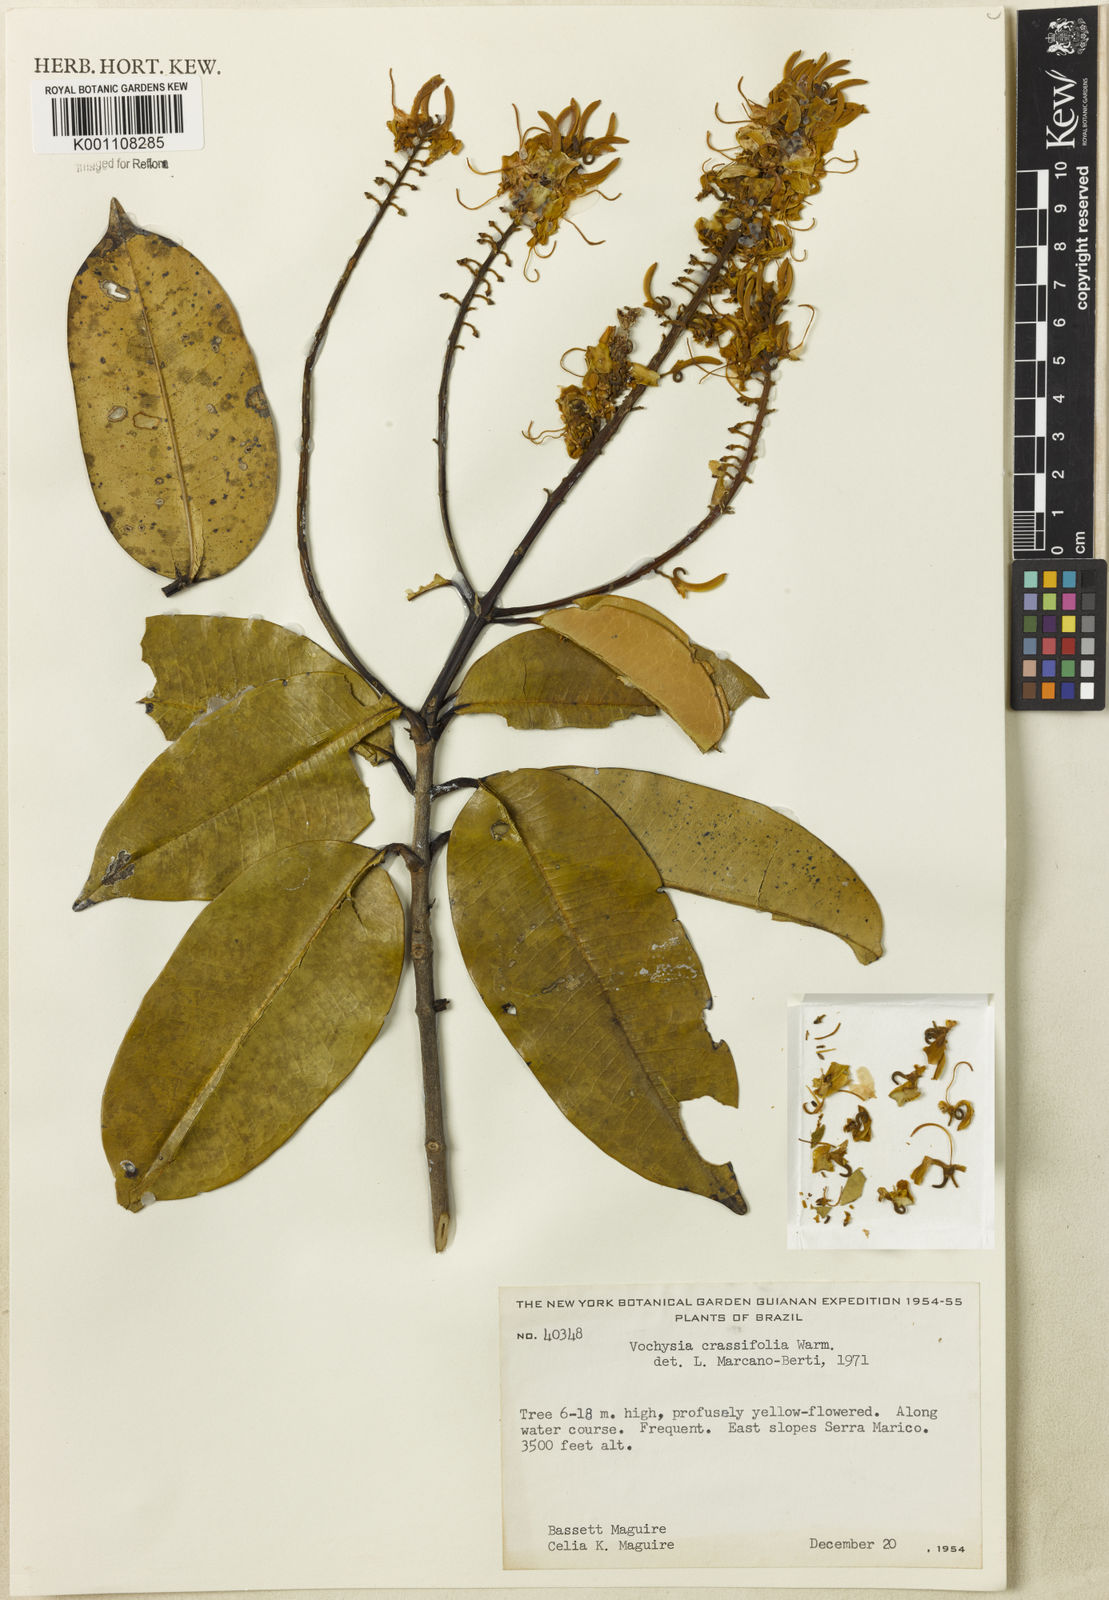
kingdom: Plantae
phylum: Tracheophyta
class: Magnoliopsida
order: Myrtales
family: Vochysiaceae
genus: Vochysia
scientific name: Vochysia crassifolia
